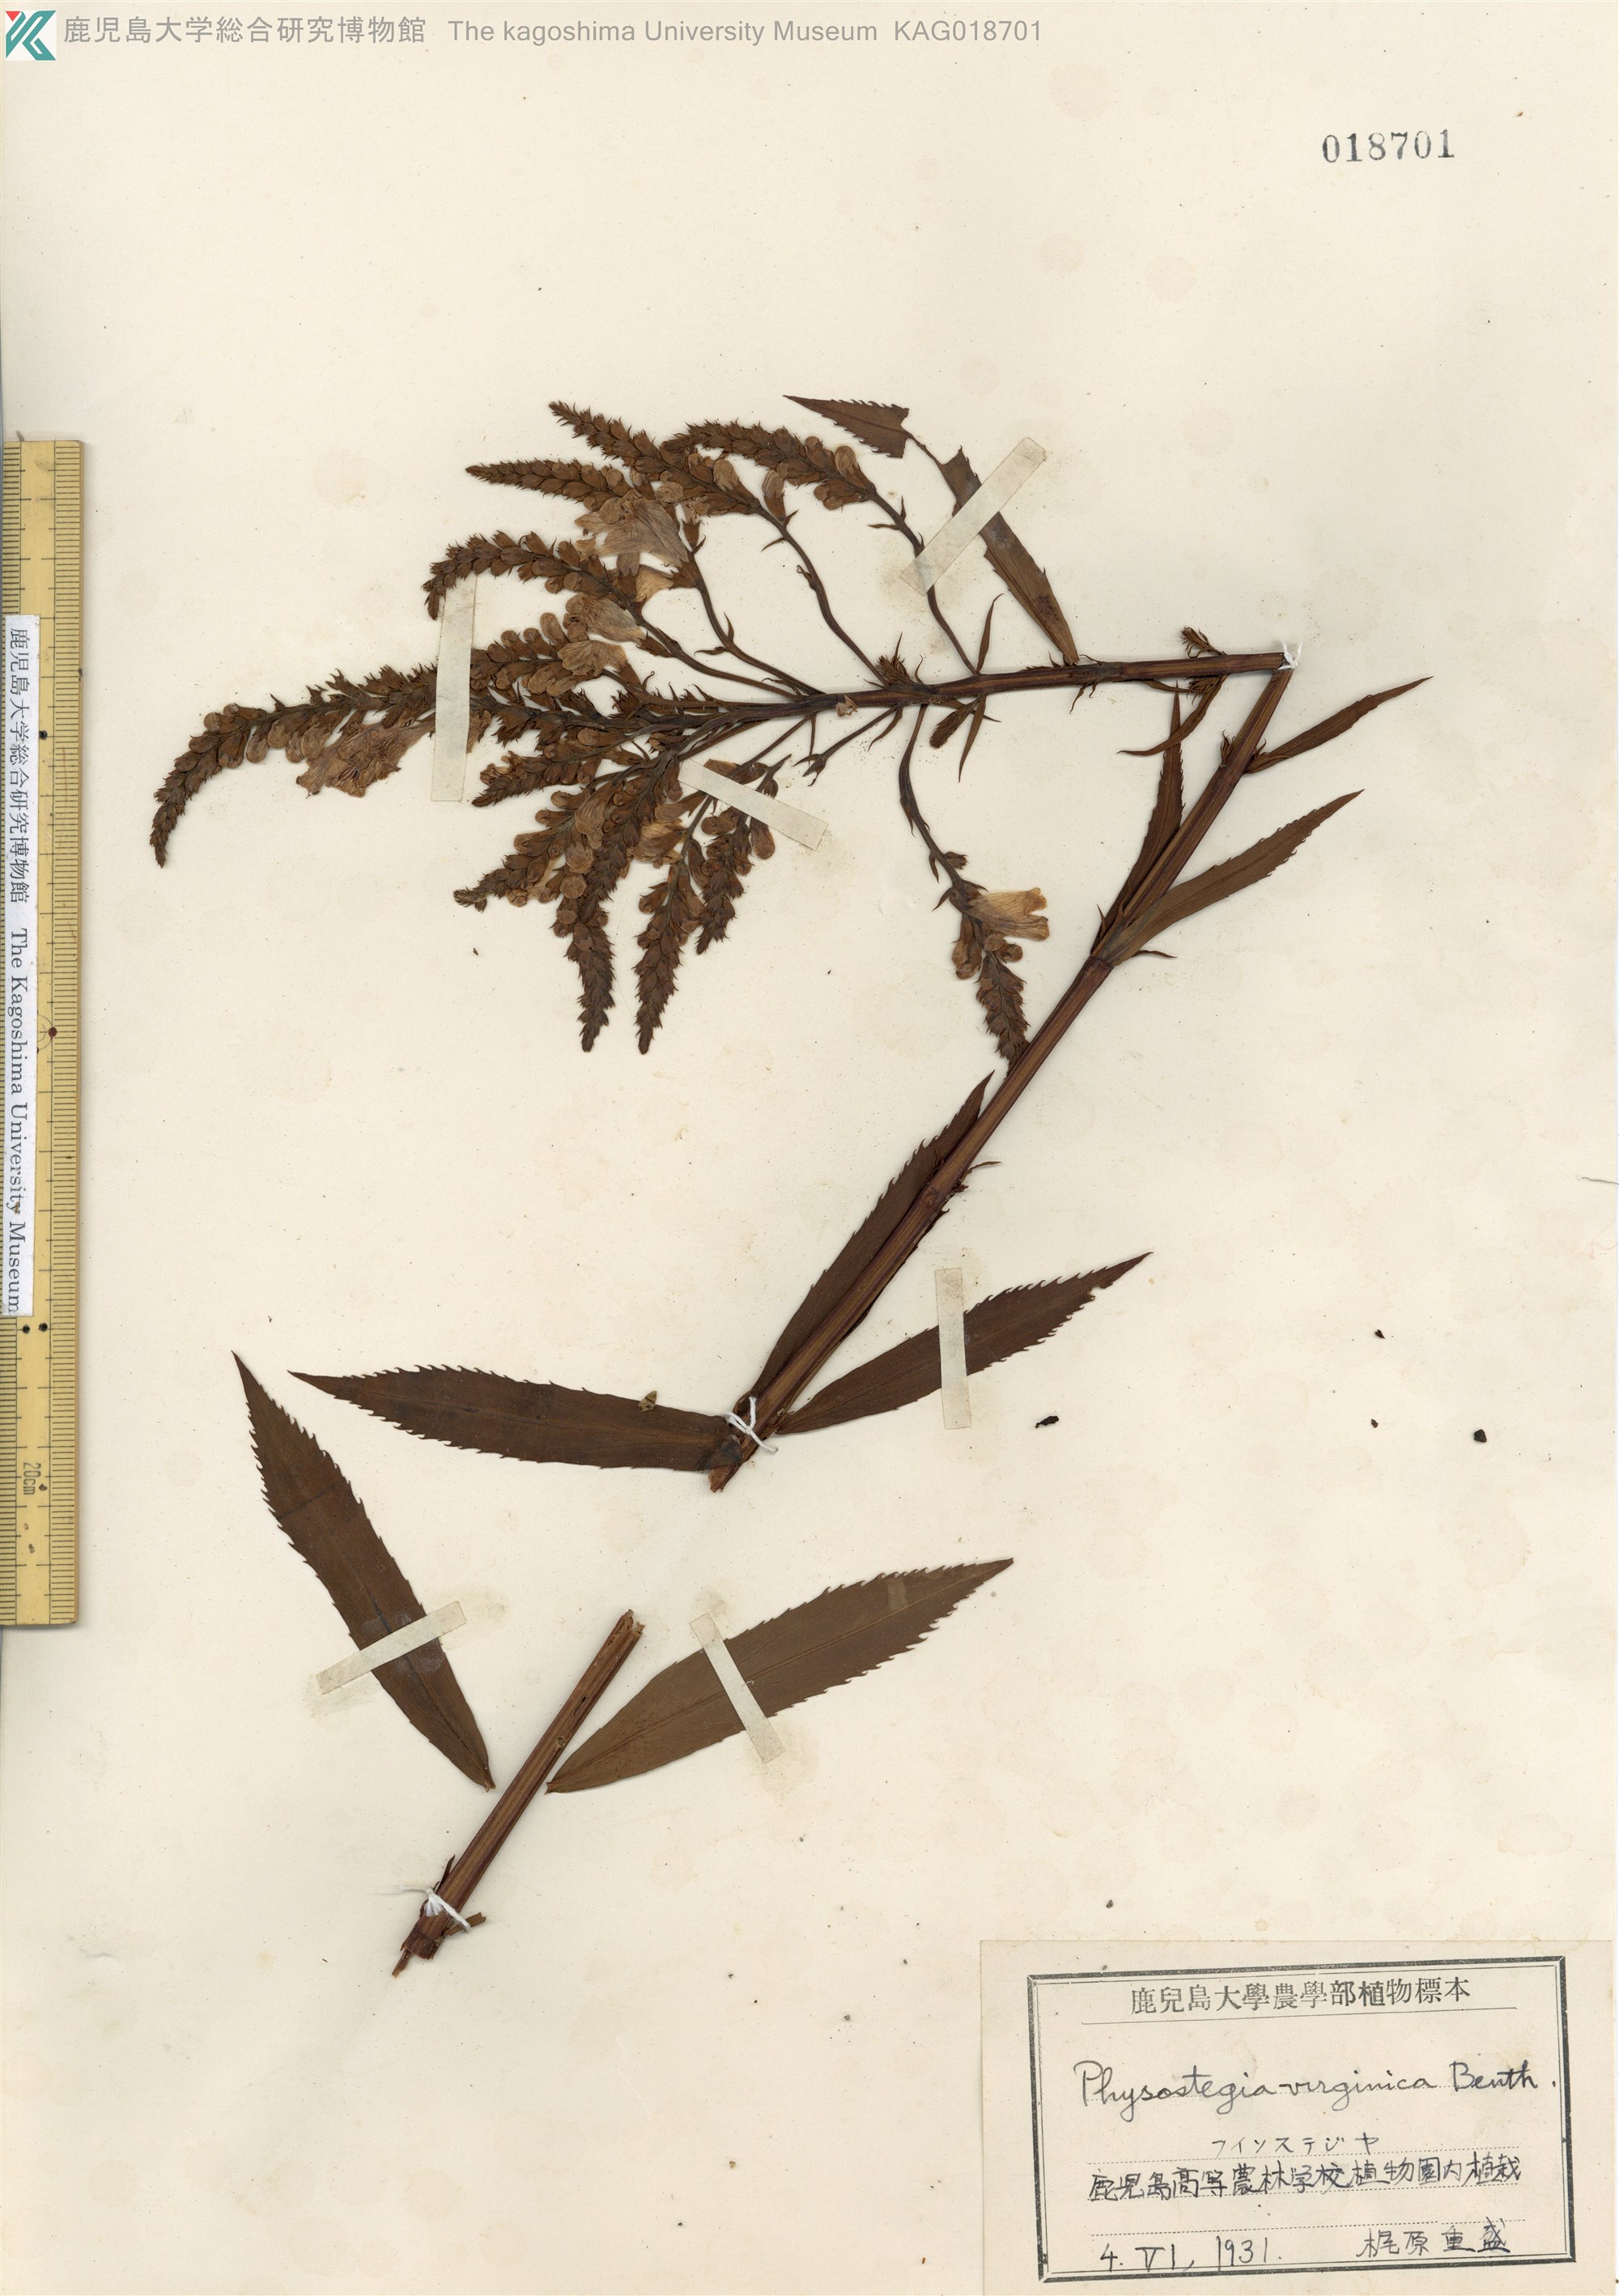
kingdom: Plantae
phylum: Tracheophyta
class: Magnoliopsida
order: Lamiales
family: Lamiaceae
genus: Physostegia
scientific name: Physostegia virginiana
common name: Obedient-plant
